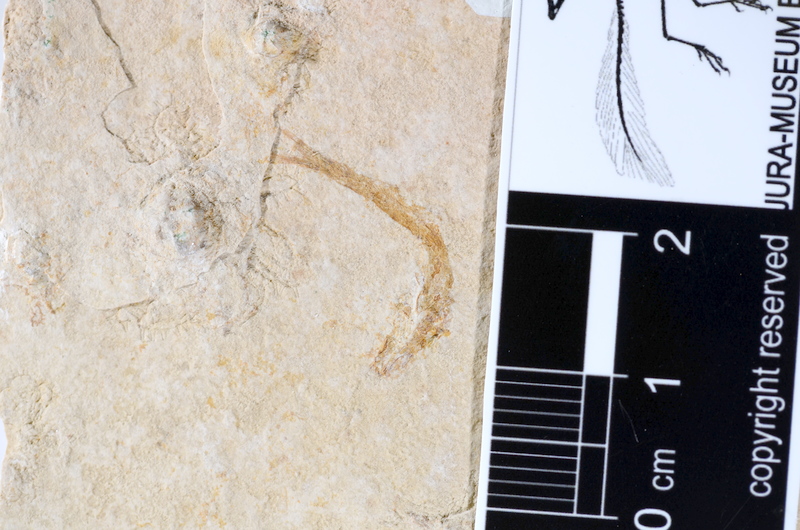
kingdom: Animalia
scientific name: Animalia
